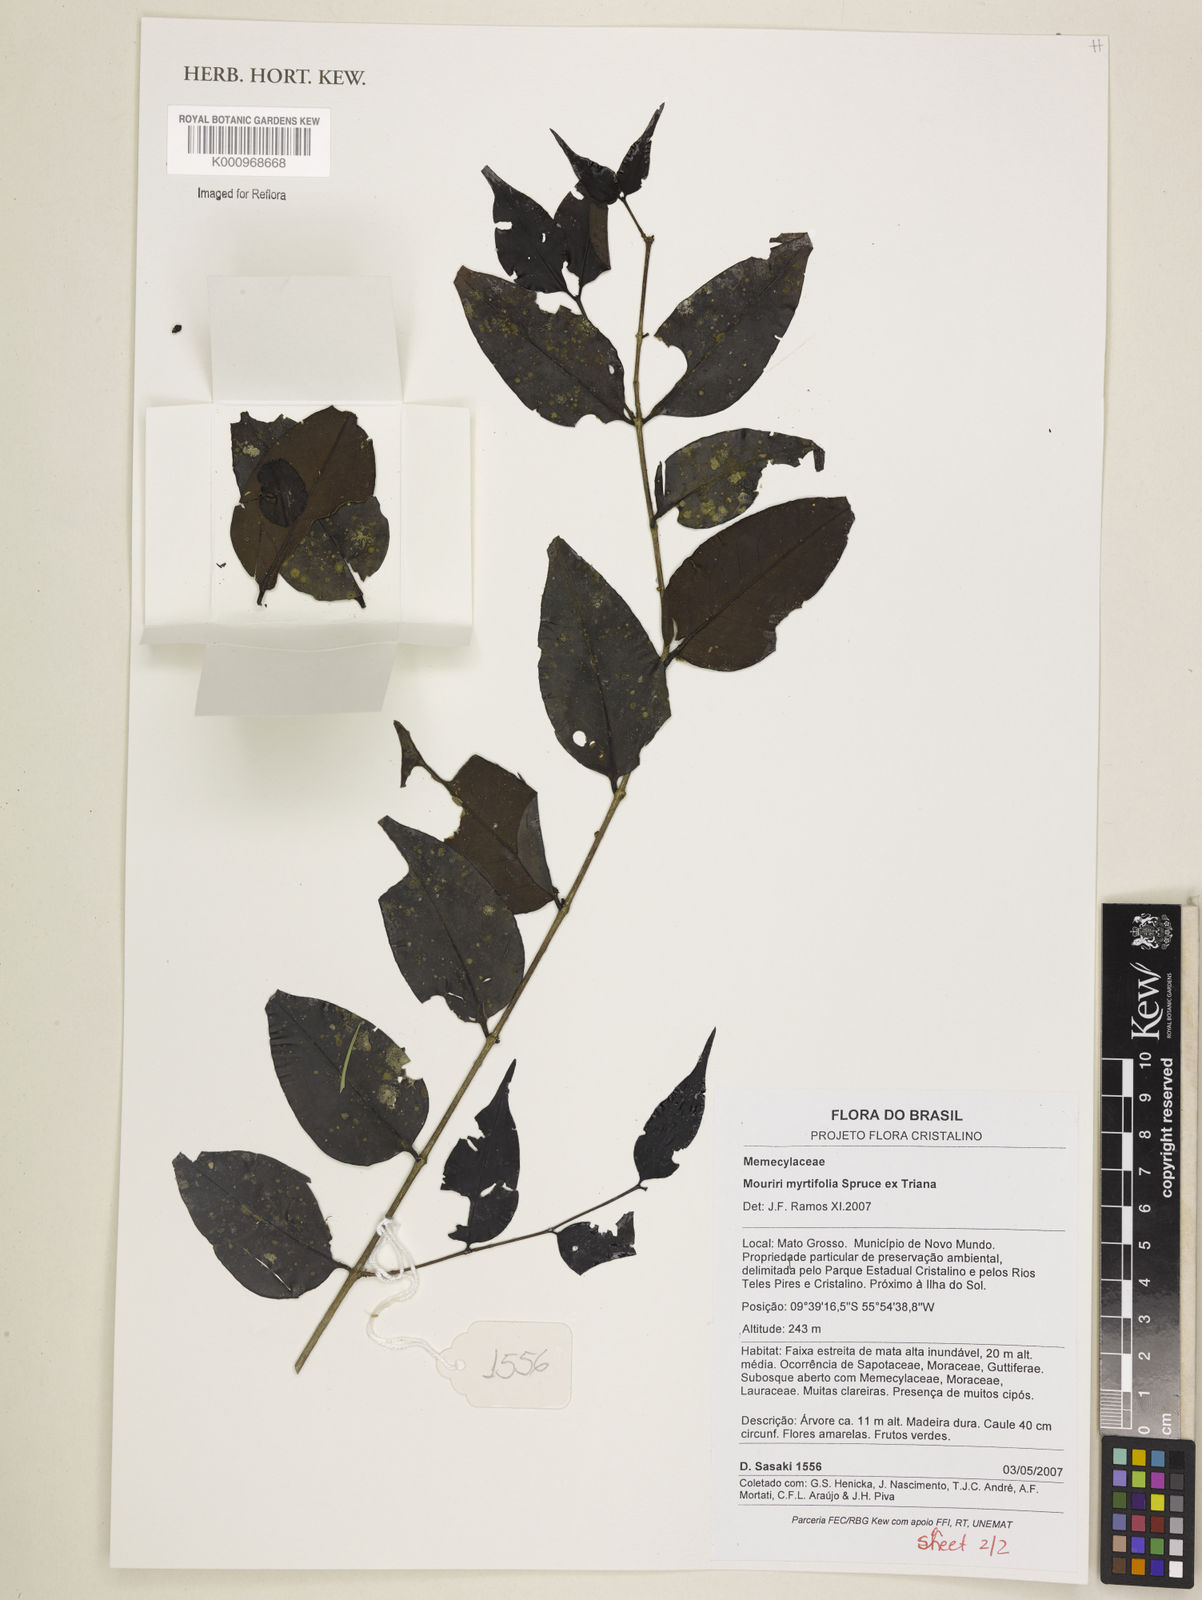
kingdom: Plantae
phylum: Tracheophyta
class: Magnoliopsida
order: Myrtales
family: Melastomataceae
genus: Mouriri
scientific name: Mouriri myrtifolia
